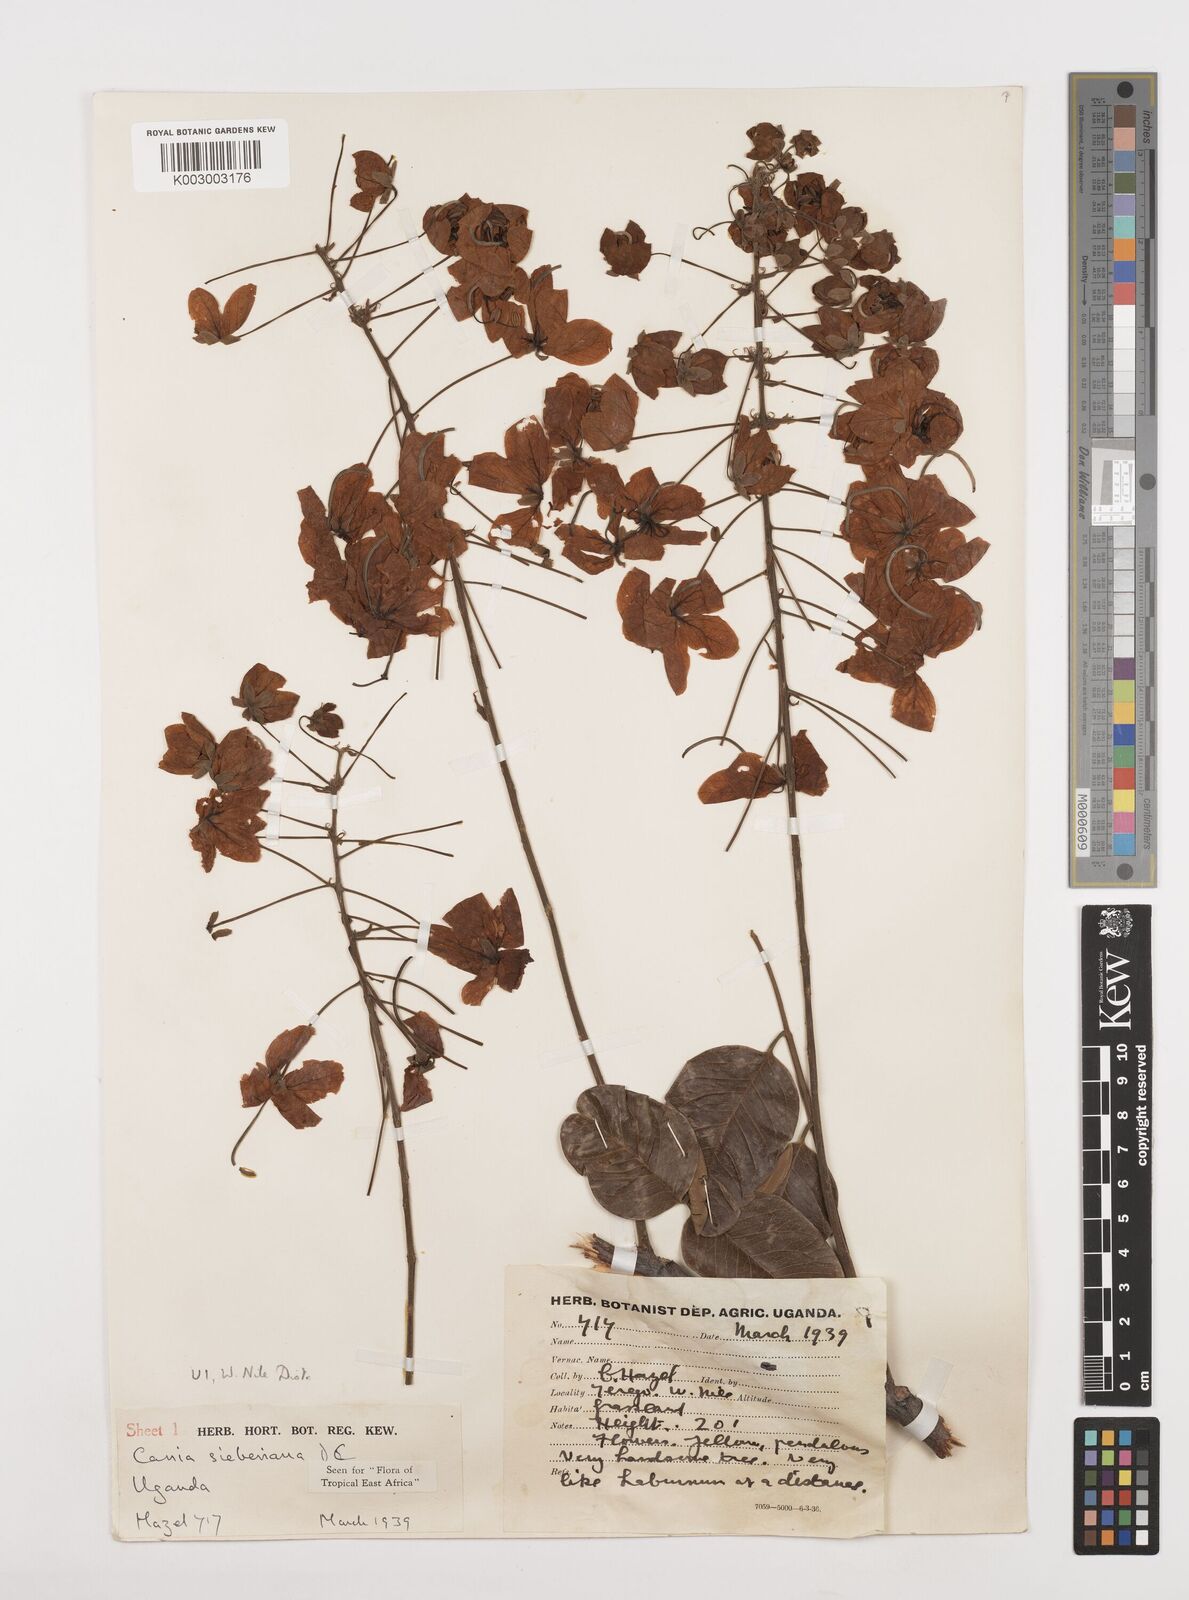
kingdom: Plantae
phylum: Tracheophyta
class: Magnoliopsida
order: Fabales
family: Fabaceae
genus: Cassia
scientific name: Cassia sieberiana
